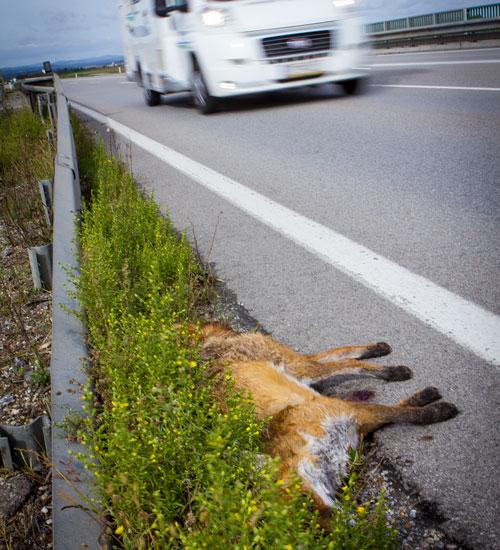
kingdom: Animalia
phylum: Chordata
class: Mammalia
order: Carnivora
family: Canidae
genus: Vulpes
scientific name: Vulpes vulpes
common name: Red fox
